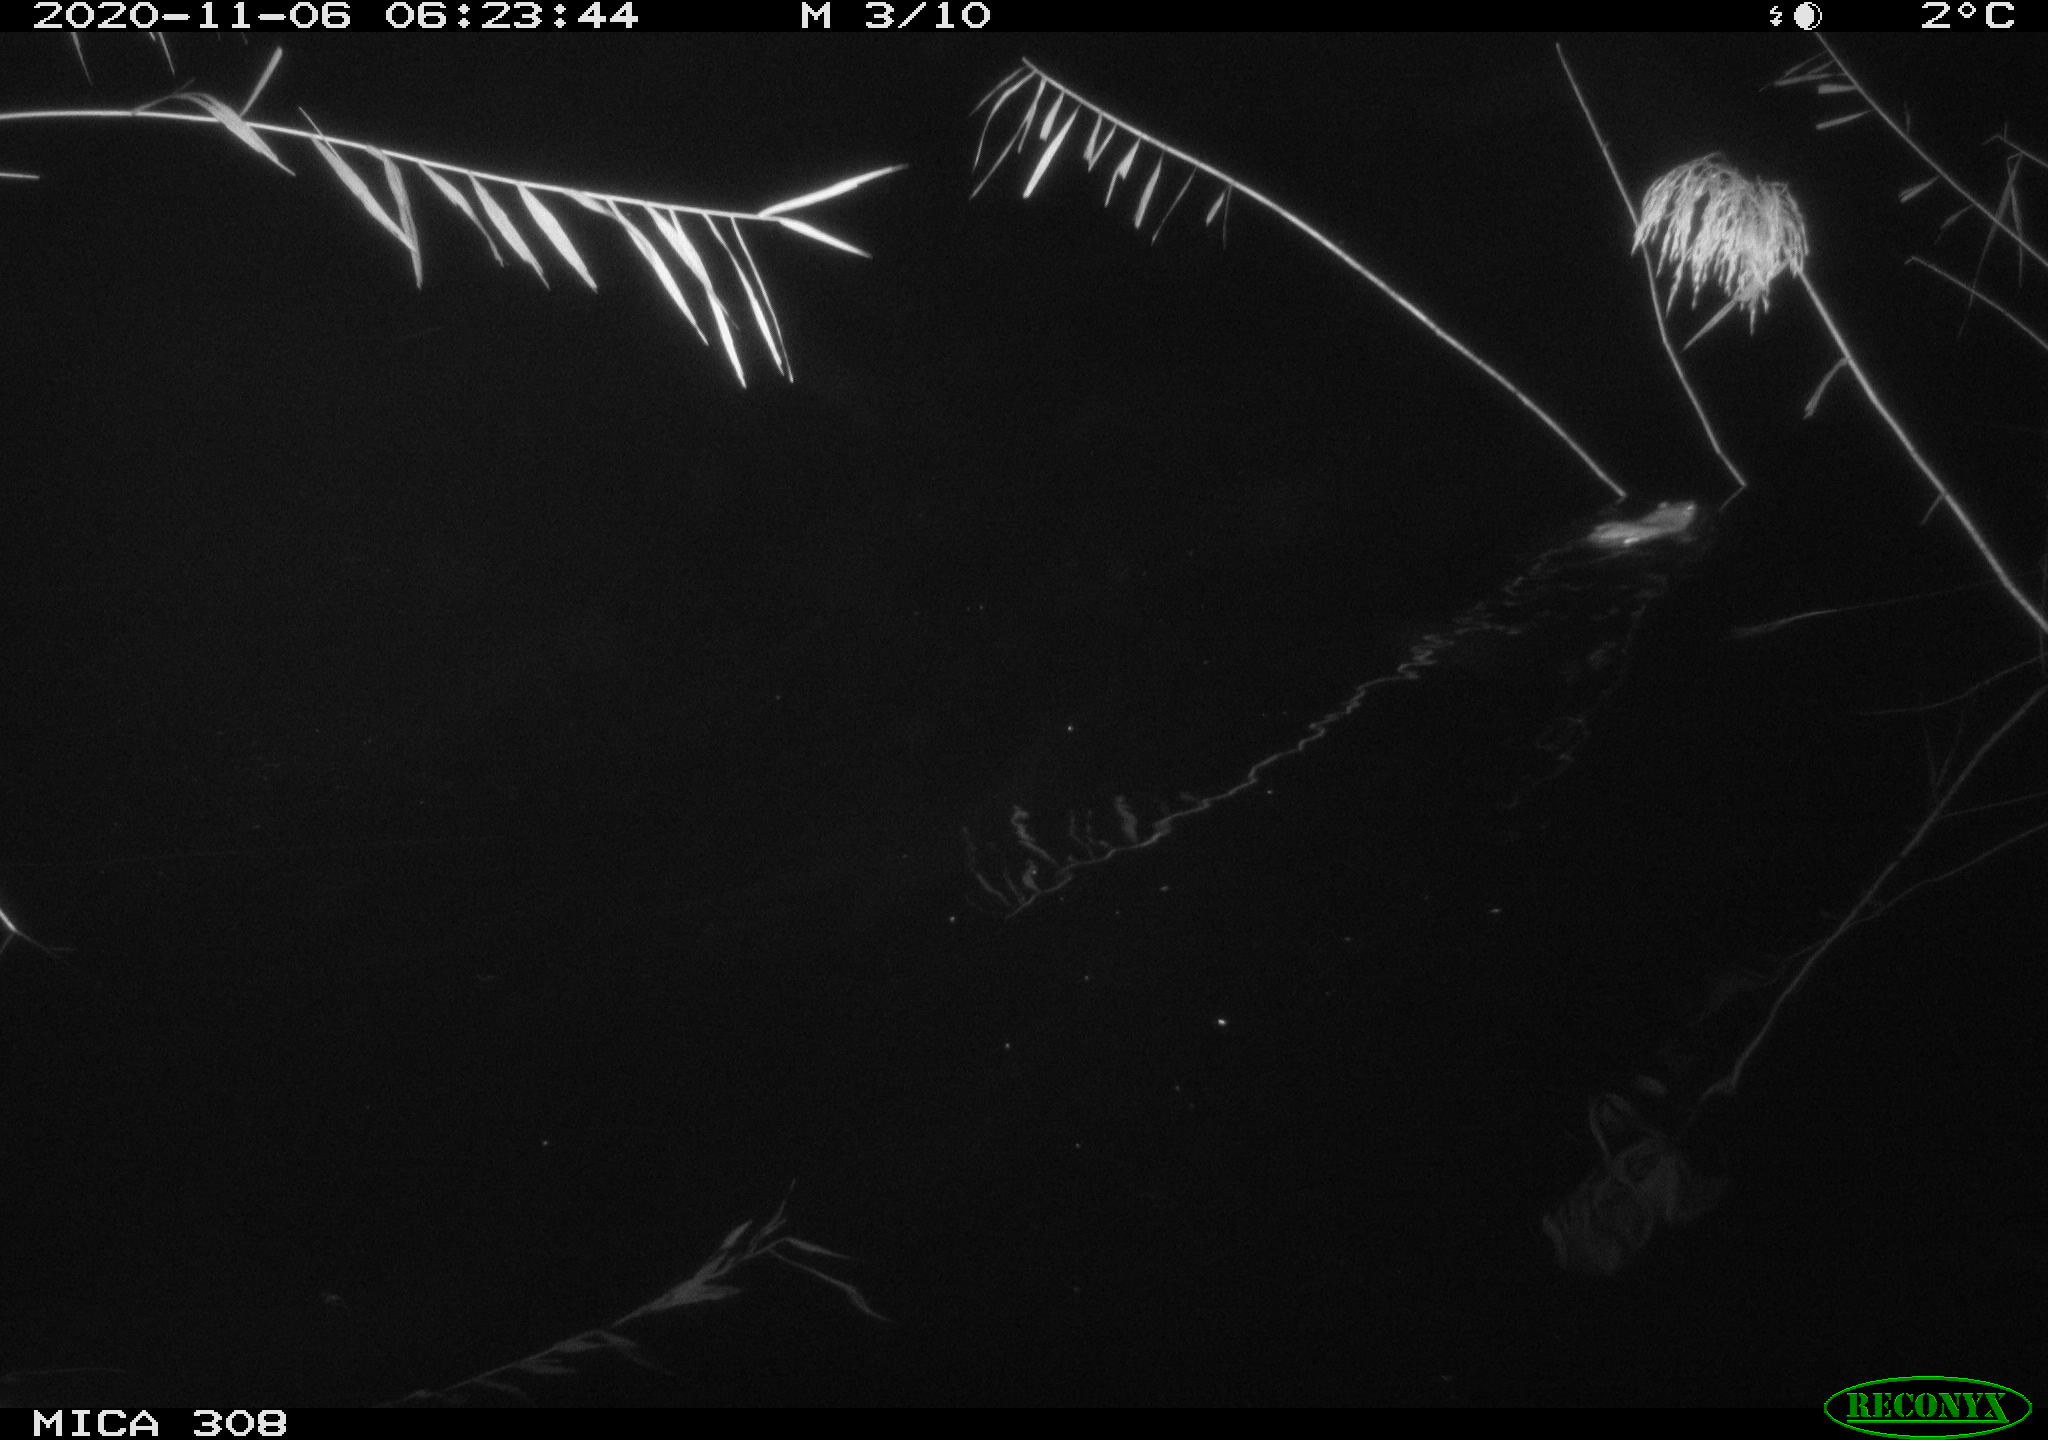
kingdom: Animalia
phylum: Chordata
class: Mammalia
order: Rodentia
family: Muridae
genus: Rattus
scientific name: Rattus norvegicus
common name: Brown rat
